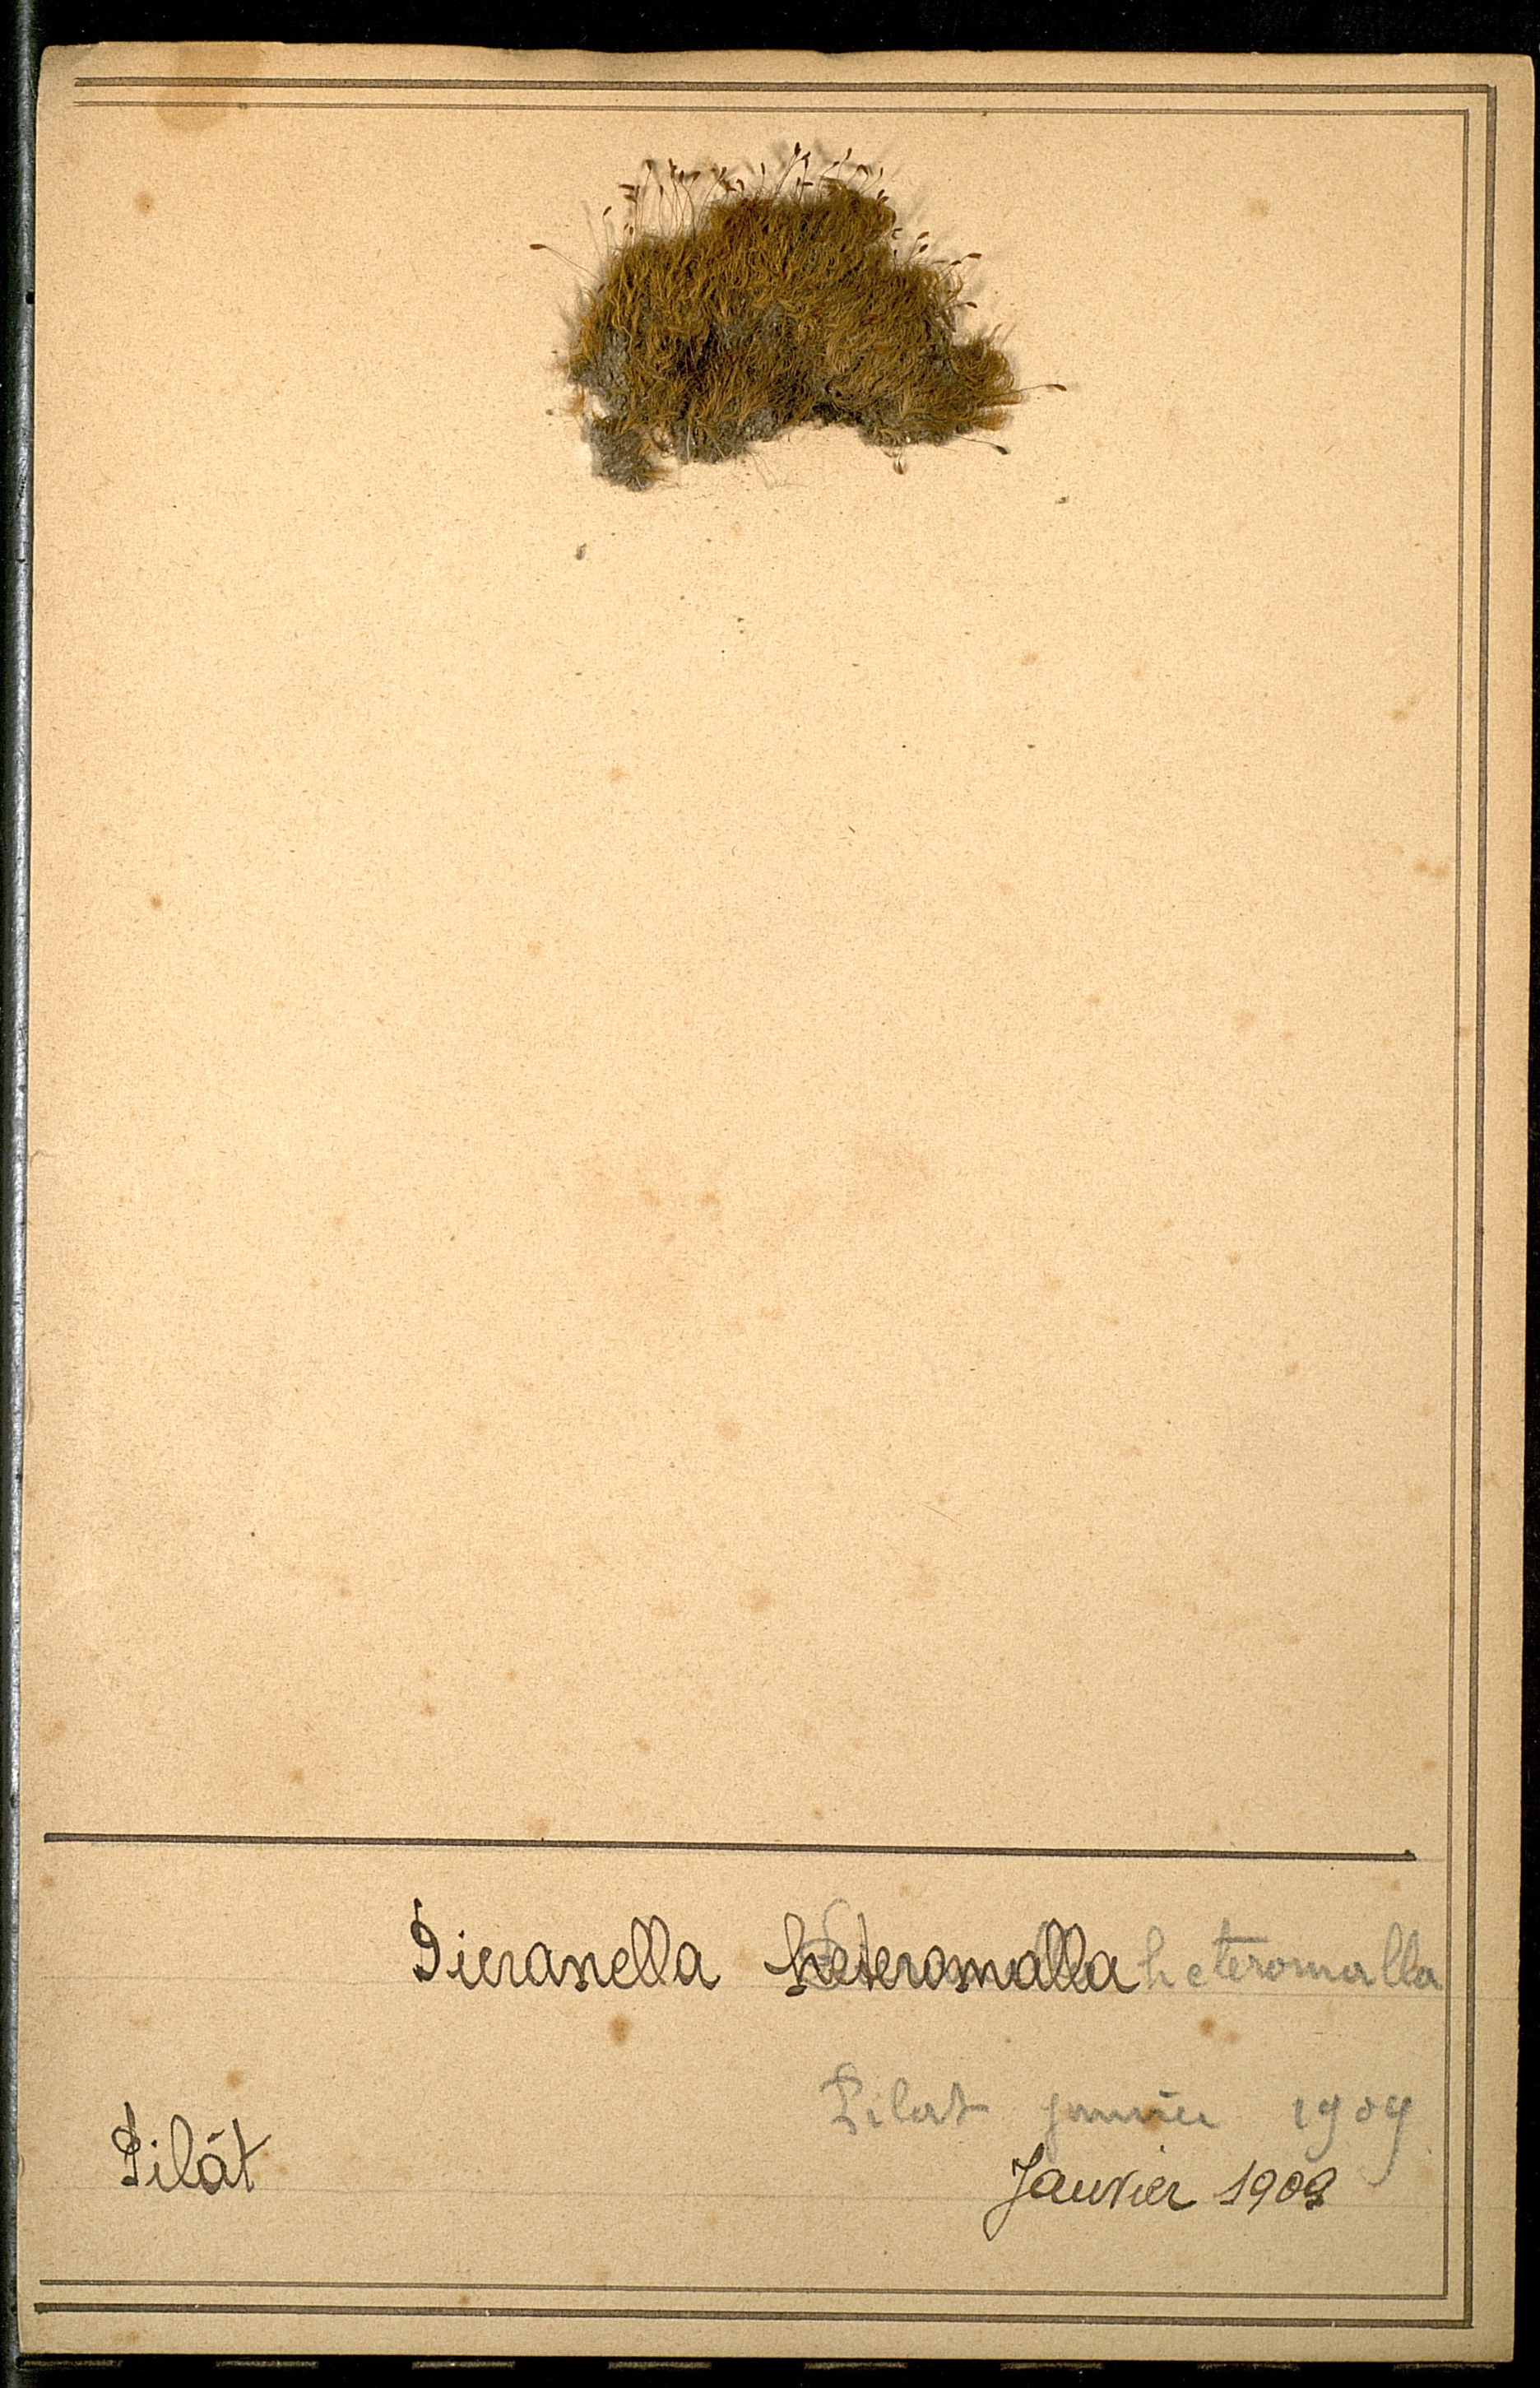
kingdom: Plantae
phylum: Bryophyta
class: Bryopsida
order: Dicranales
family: Dicranellaceae
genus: Dicranella
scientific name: Dicranella heteromalla
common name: Silky forklet moss
